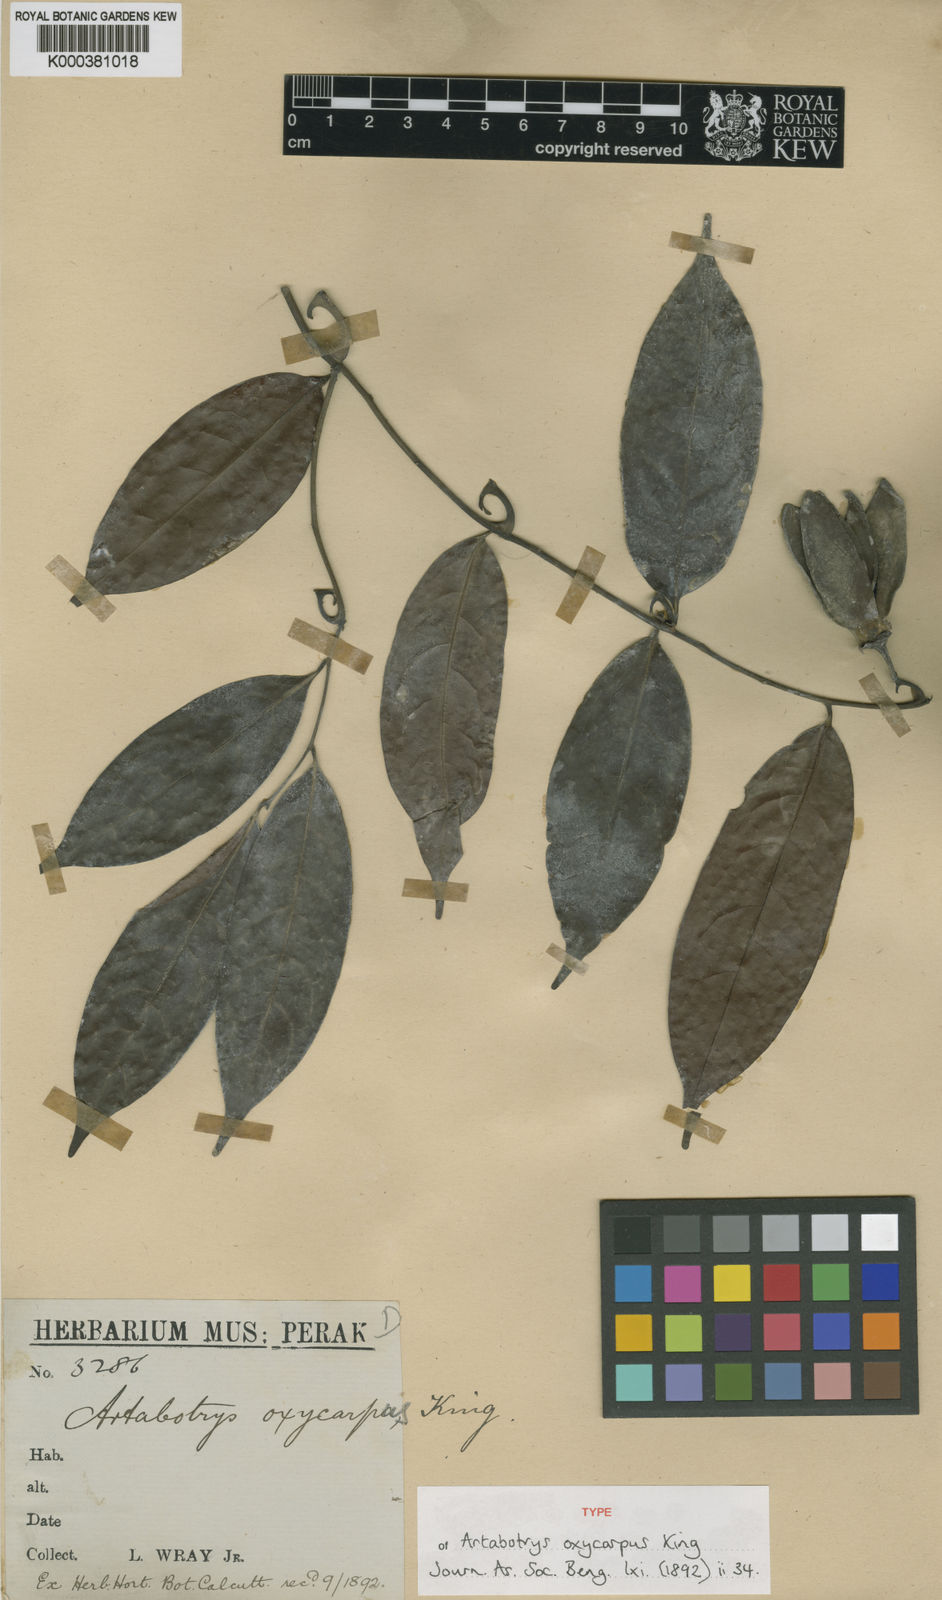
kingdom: Plantae
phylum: Tracheophyta
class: Magnoliopsida
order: Magnoliales
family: Annonaceae
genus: Artabotrys
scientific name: Artabotrys oxycarpus
